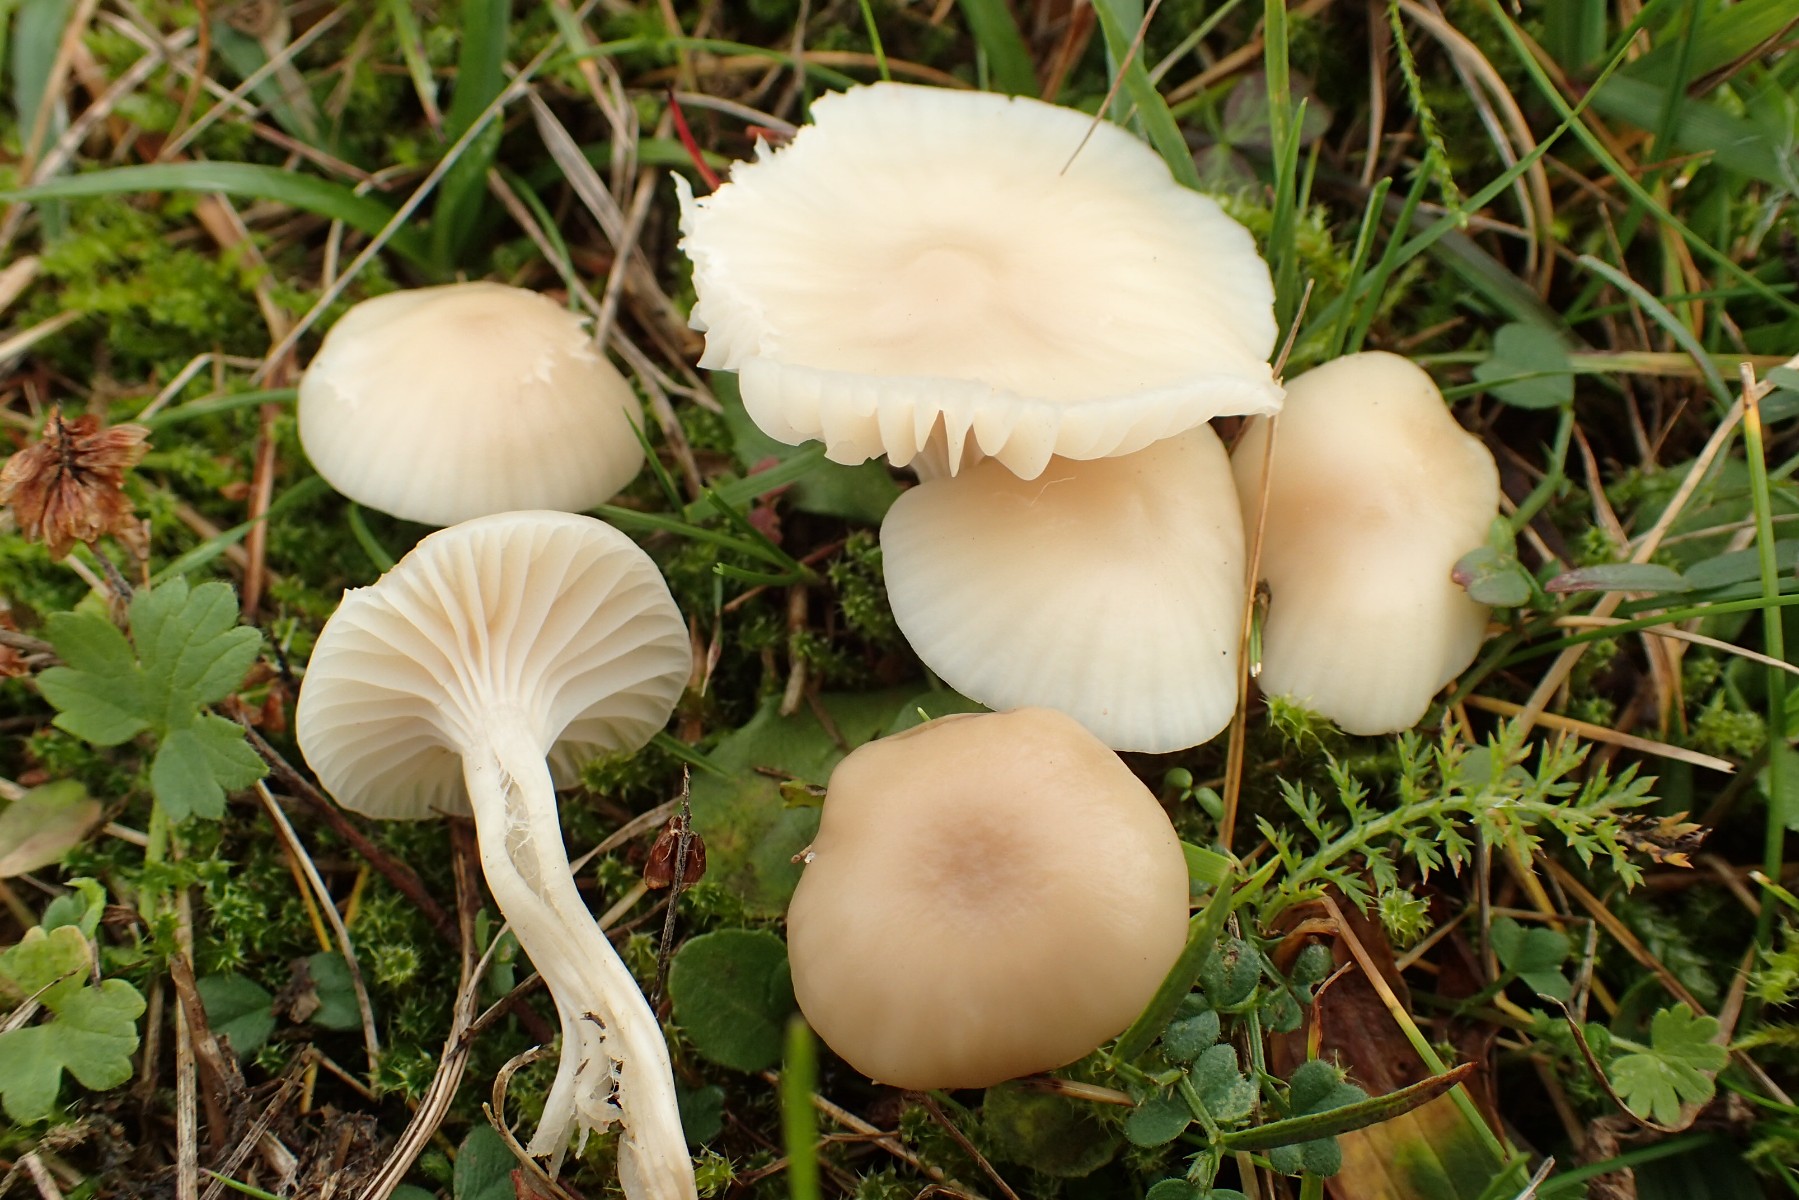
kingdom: Fungi
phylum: Basidiomycota
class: Agaricomycetes
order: Agaricales
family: Hygrophoraceae
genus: Cuphophyllus
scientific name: Cuphophyllus virgineus
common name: isabella-vokshat
